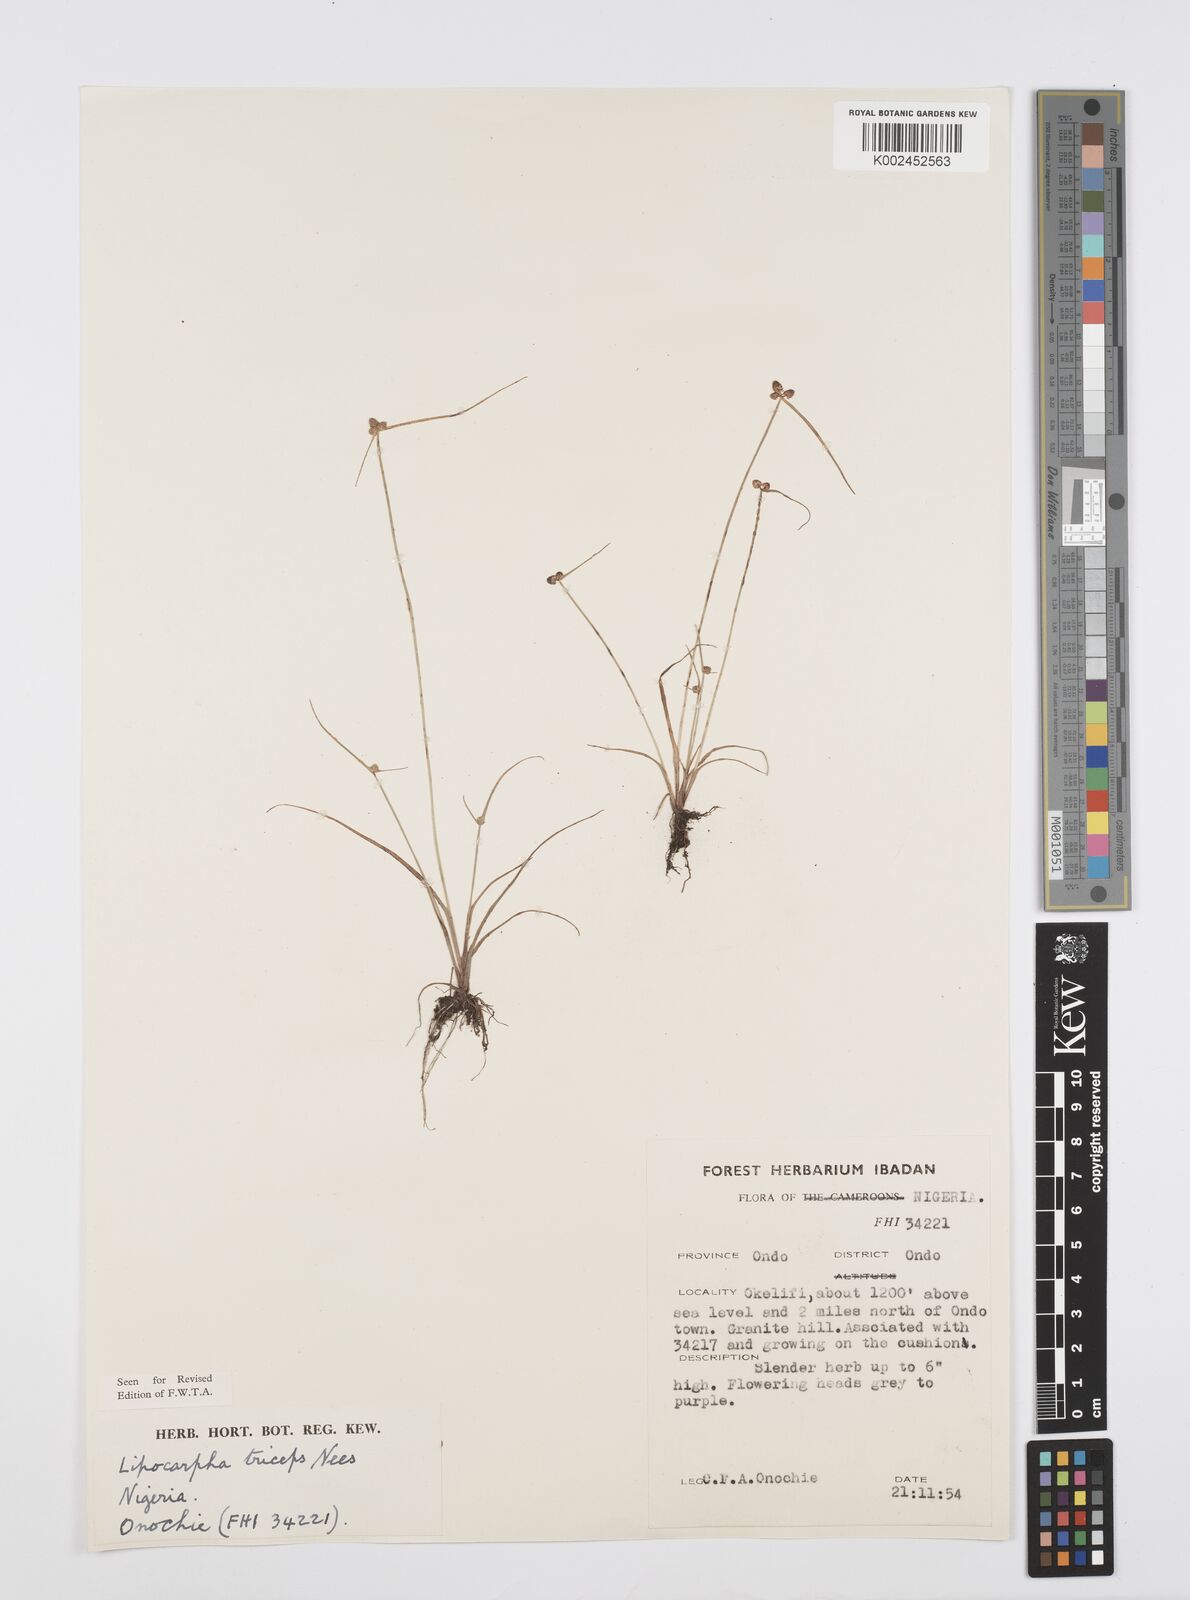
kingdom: Plantae
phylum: Tracheophyta
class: Liliopsida
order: Poales
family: Cyperaceae
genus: Cyperus
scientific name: Cyperus filiformis
